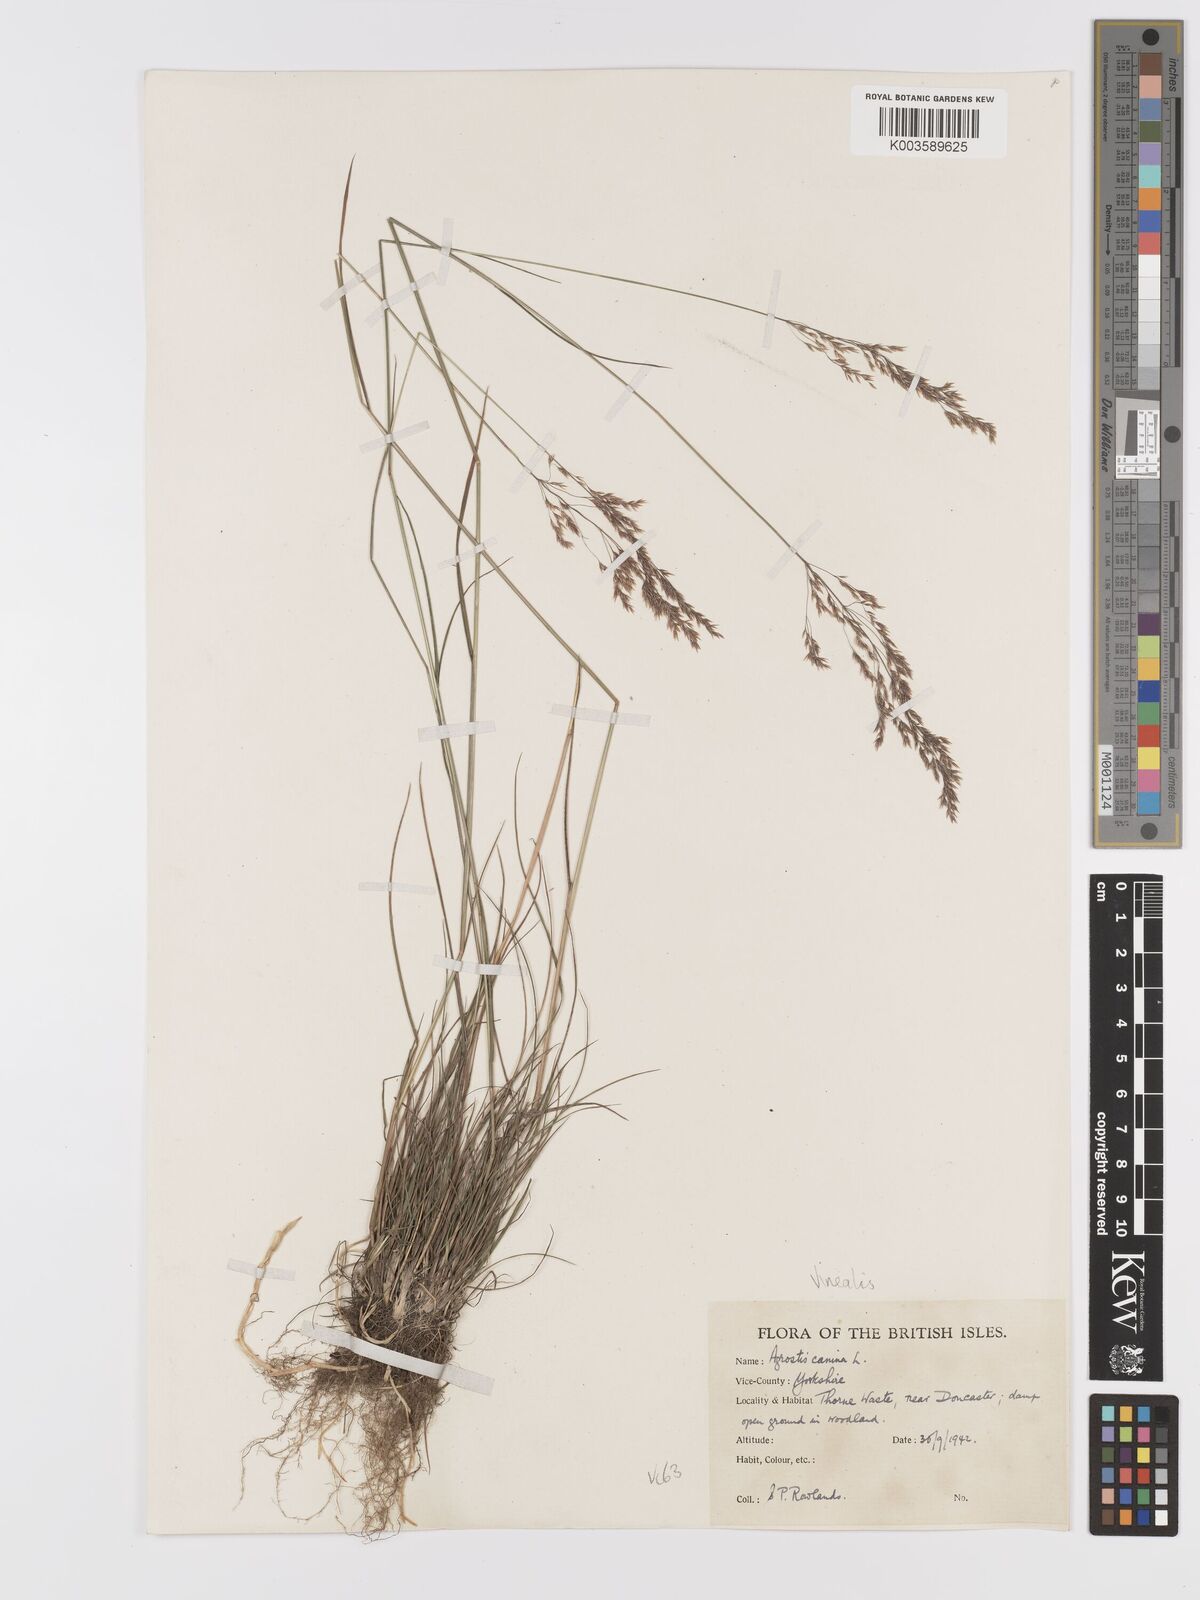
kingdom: Plantae
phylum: Tracheophyta
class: Liliopsida
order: Poales
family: Poaceae
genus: Agrostis
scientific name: Agrostis
